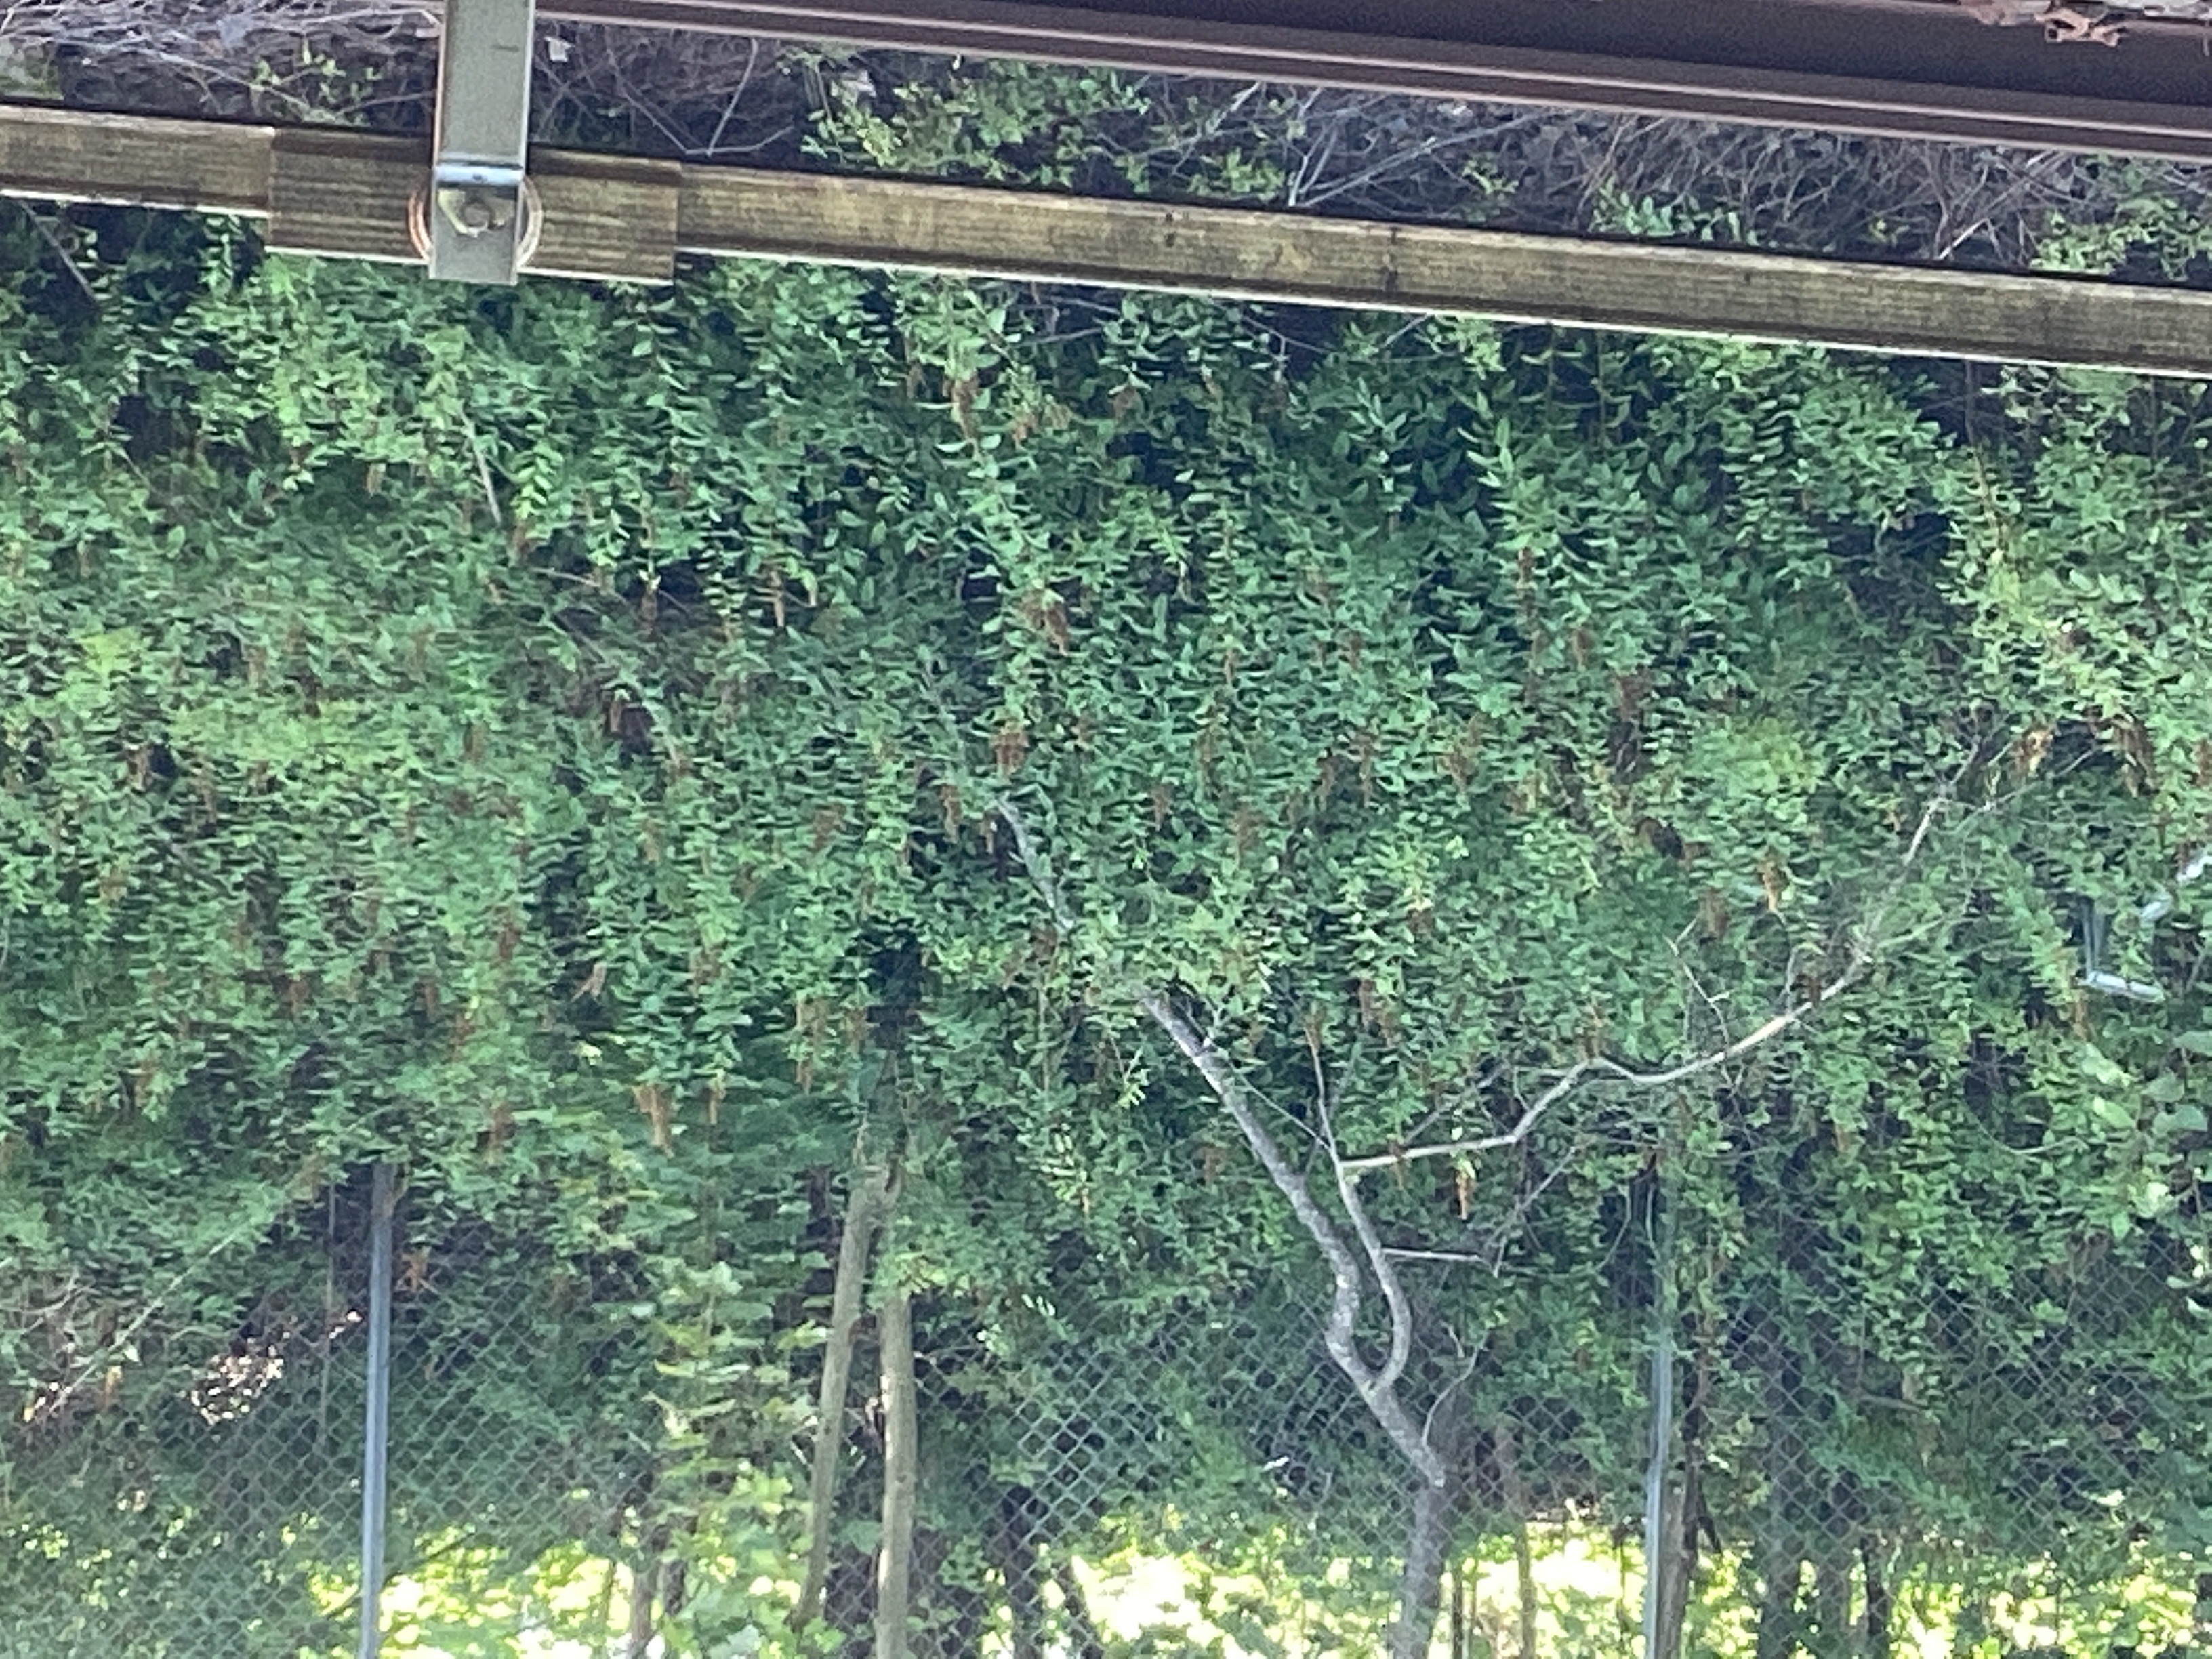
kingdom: Plantae
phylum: Tracheophyta
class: Magnoliopsida
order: Rosales
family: Rosaceae
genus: Spiraea
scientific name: Spiraea rosalba
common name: purpurspirea
